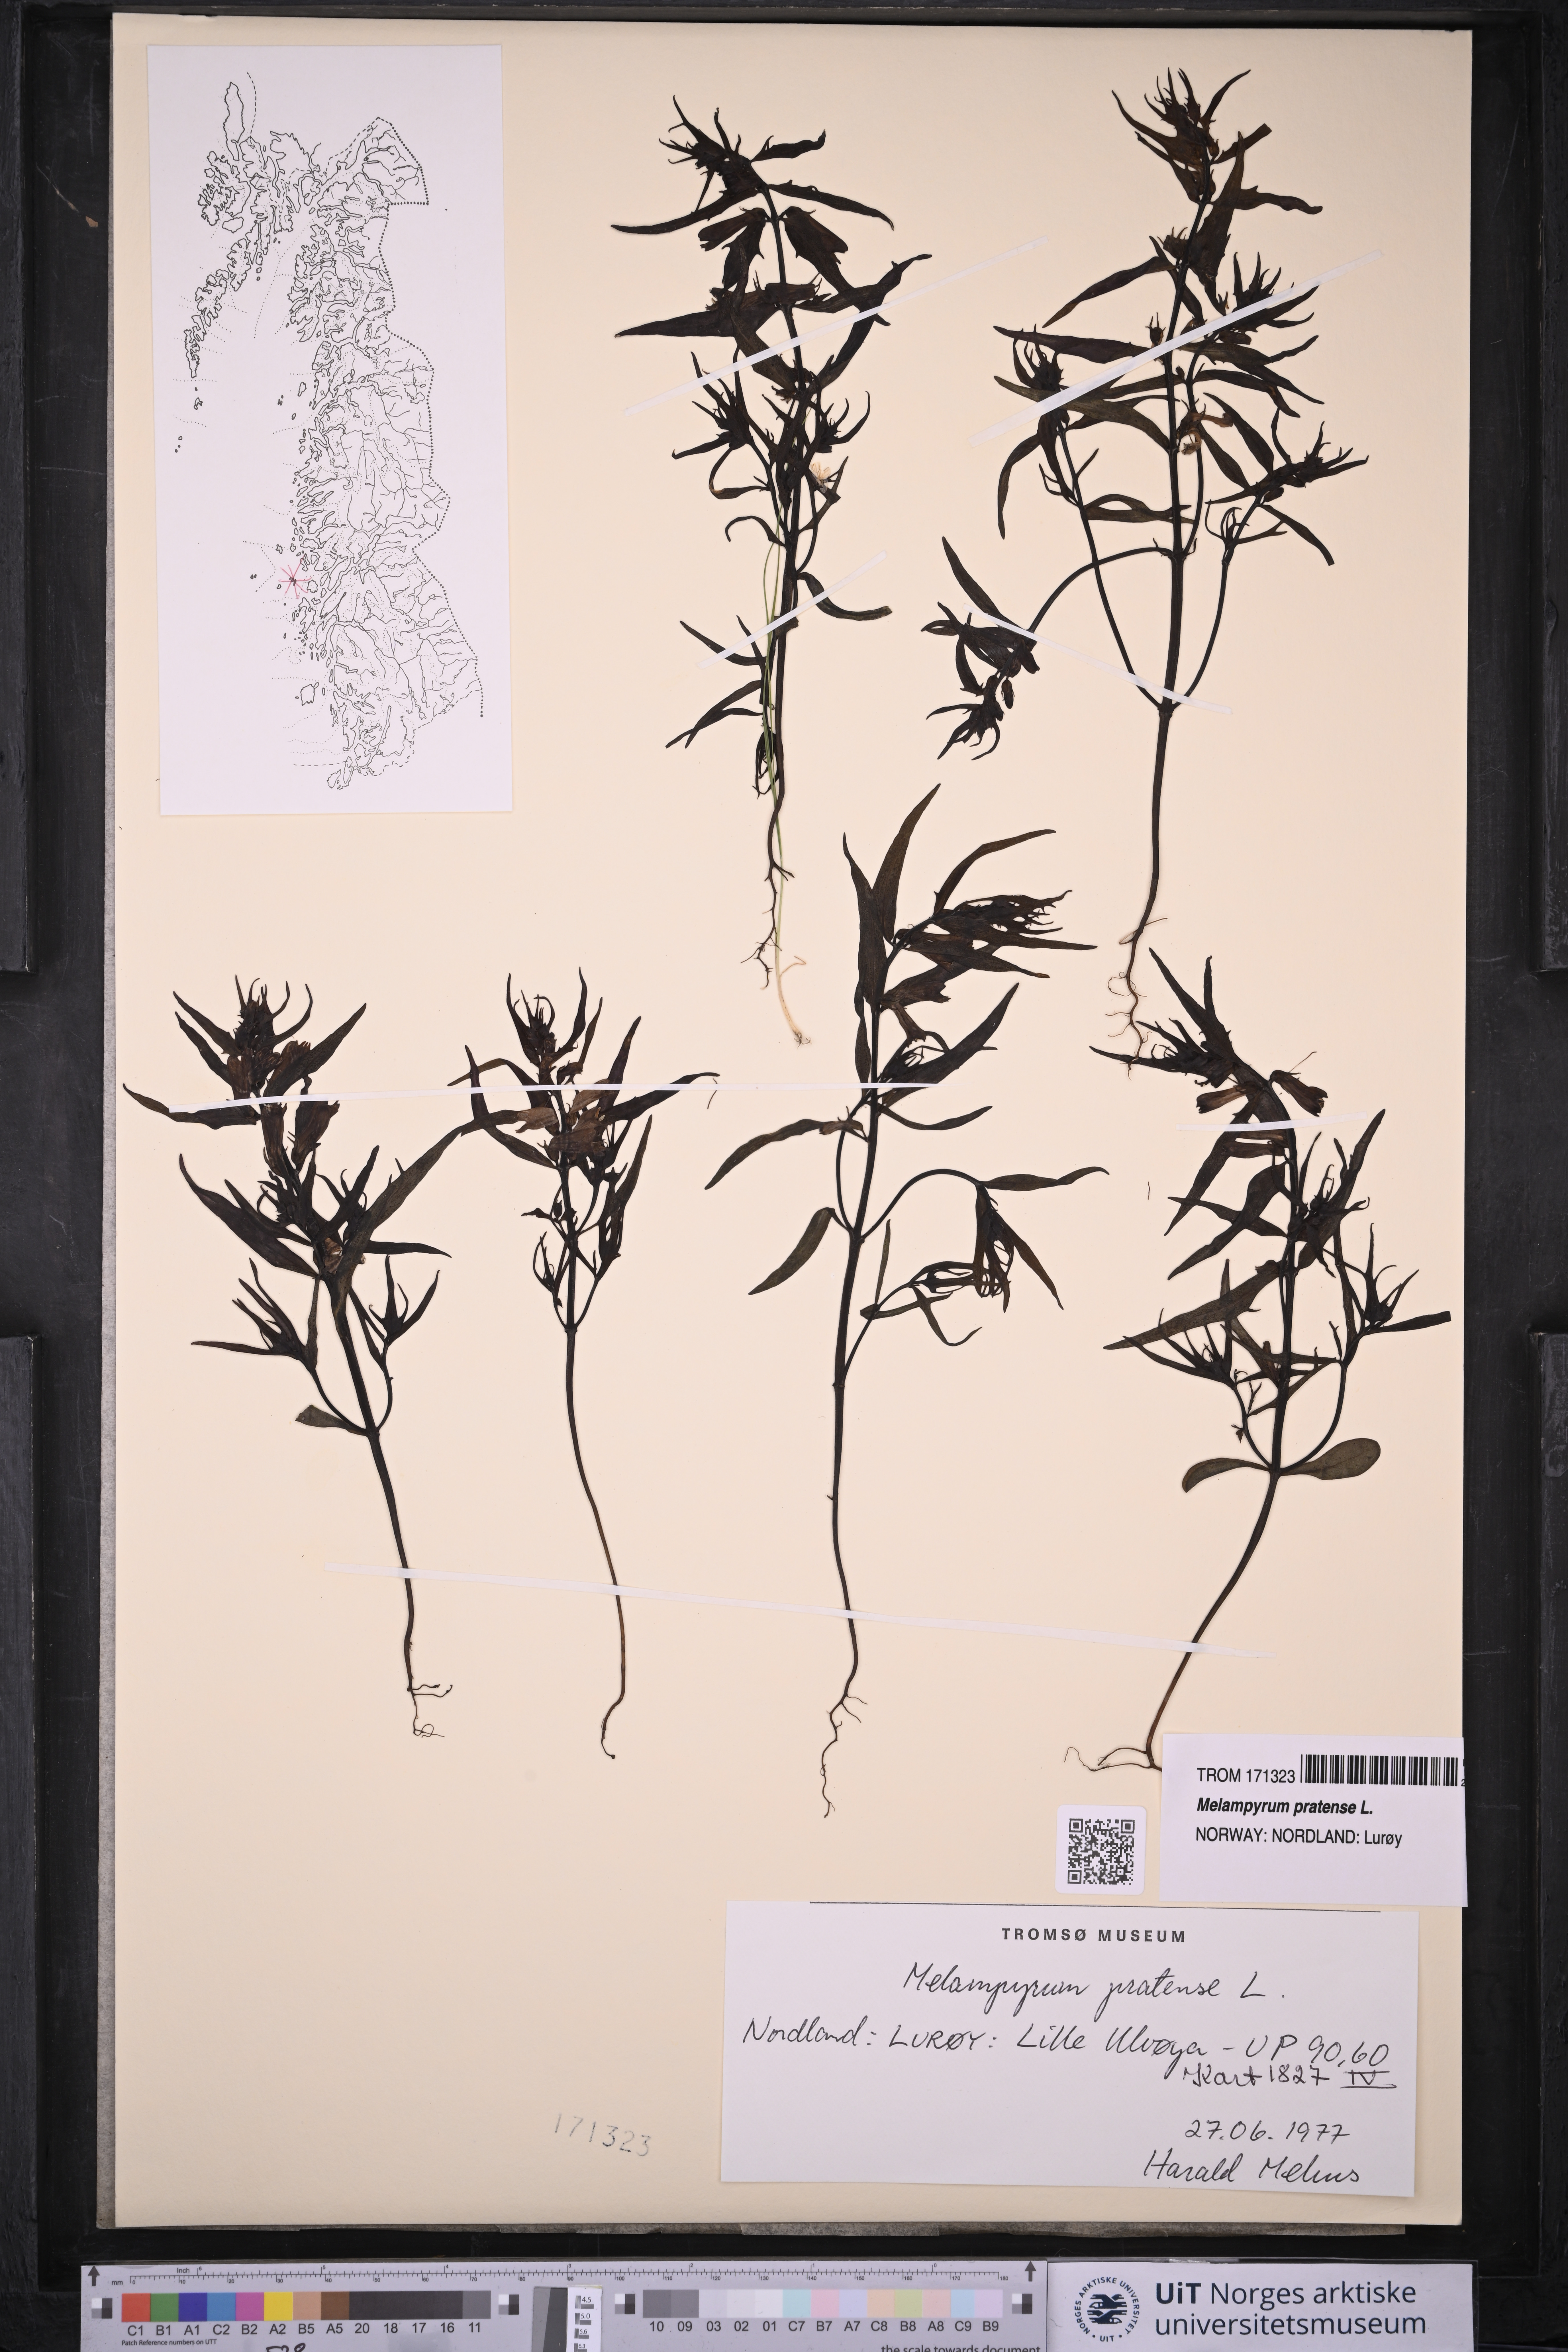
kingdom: Plantae
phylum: Tracheophyta
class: Magnoliopsida
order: Lamiales
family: Orobanchaceae
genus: Melampyrum
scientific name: Melampyrum pratense
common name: Common cow-wheat
